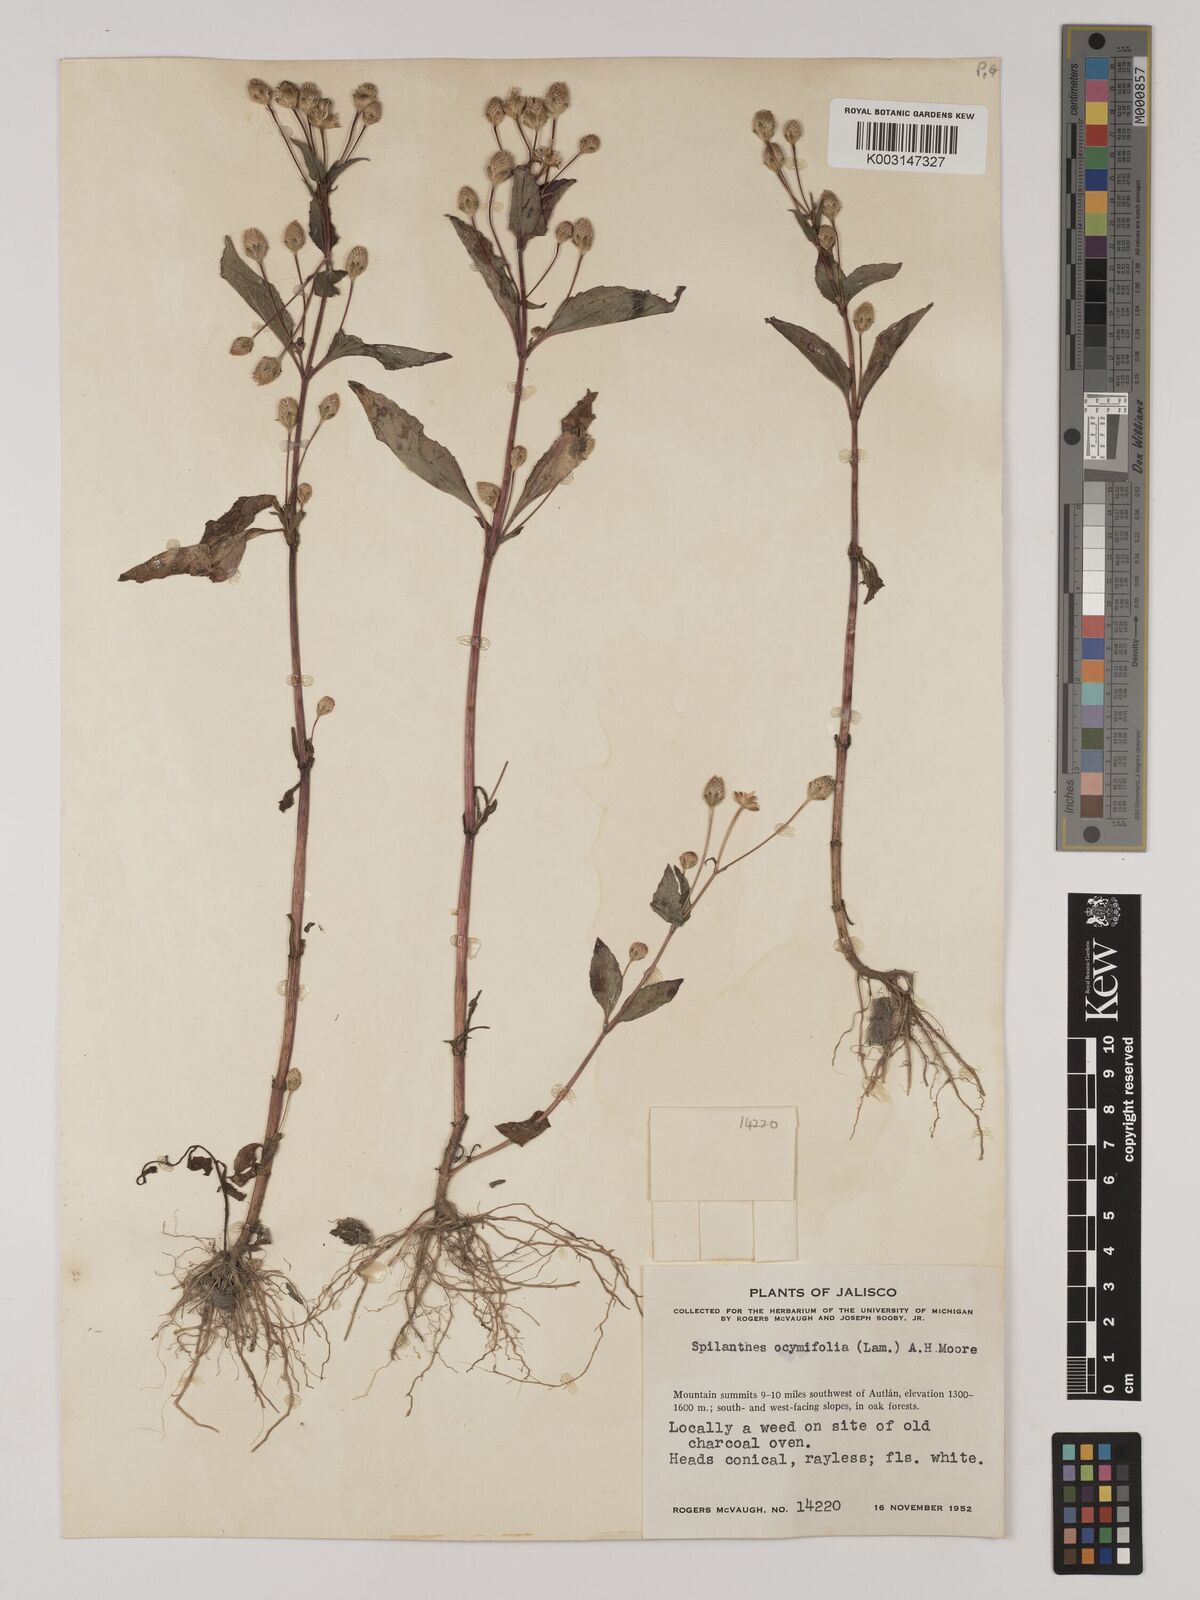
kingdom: Plantae
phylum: Tracheophyta
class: Magnoliopsida
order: Asterales
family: Asteraceae
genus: Acmella
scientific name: Acmella radicans
